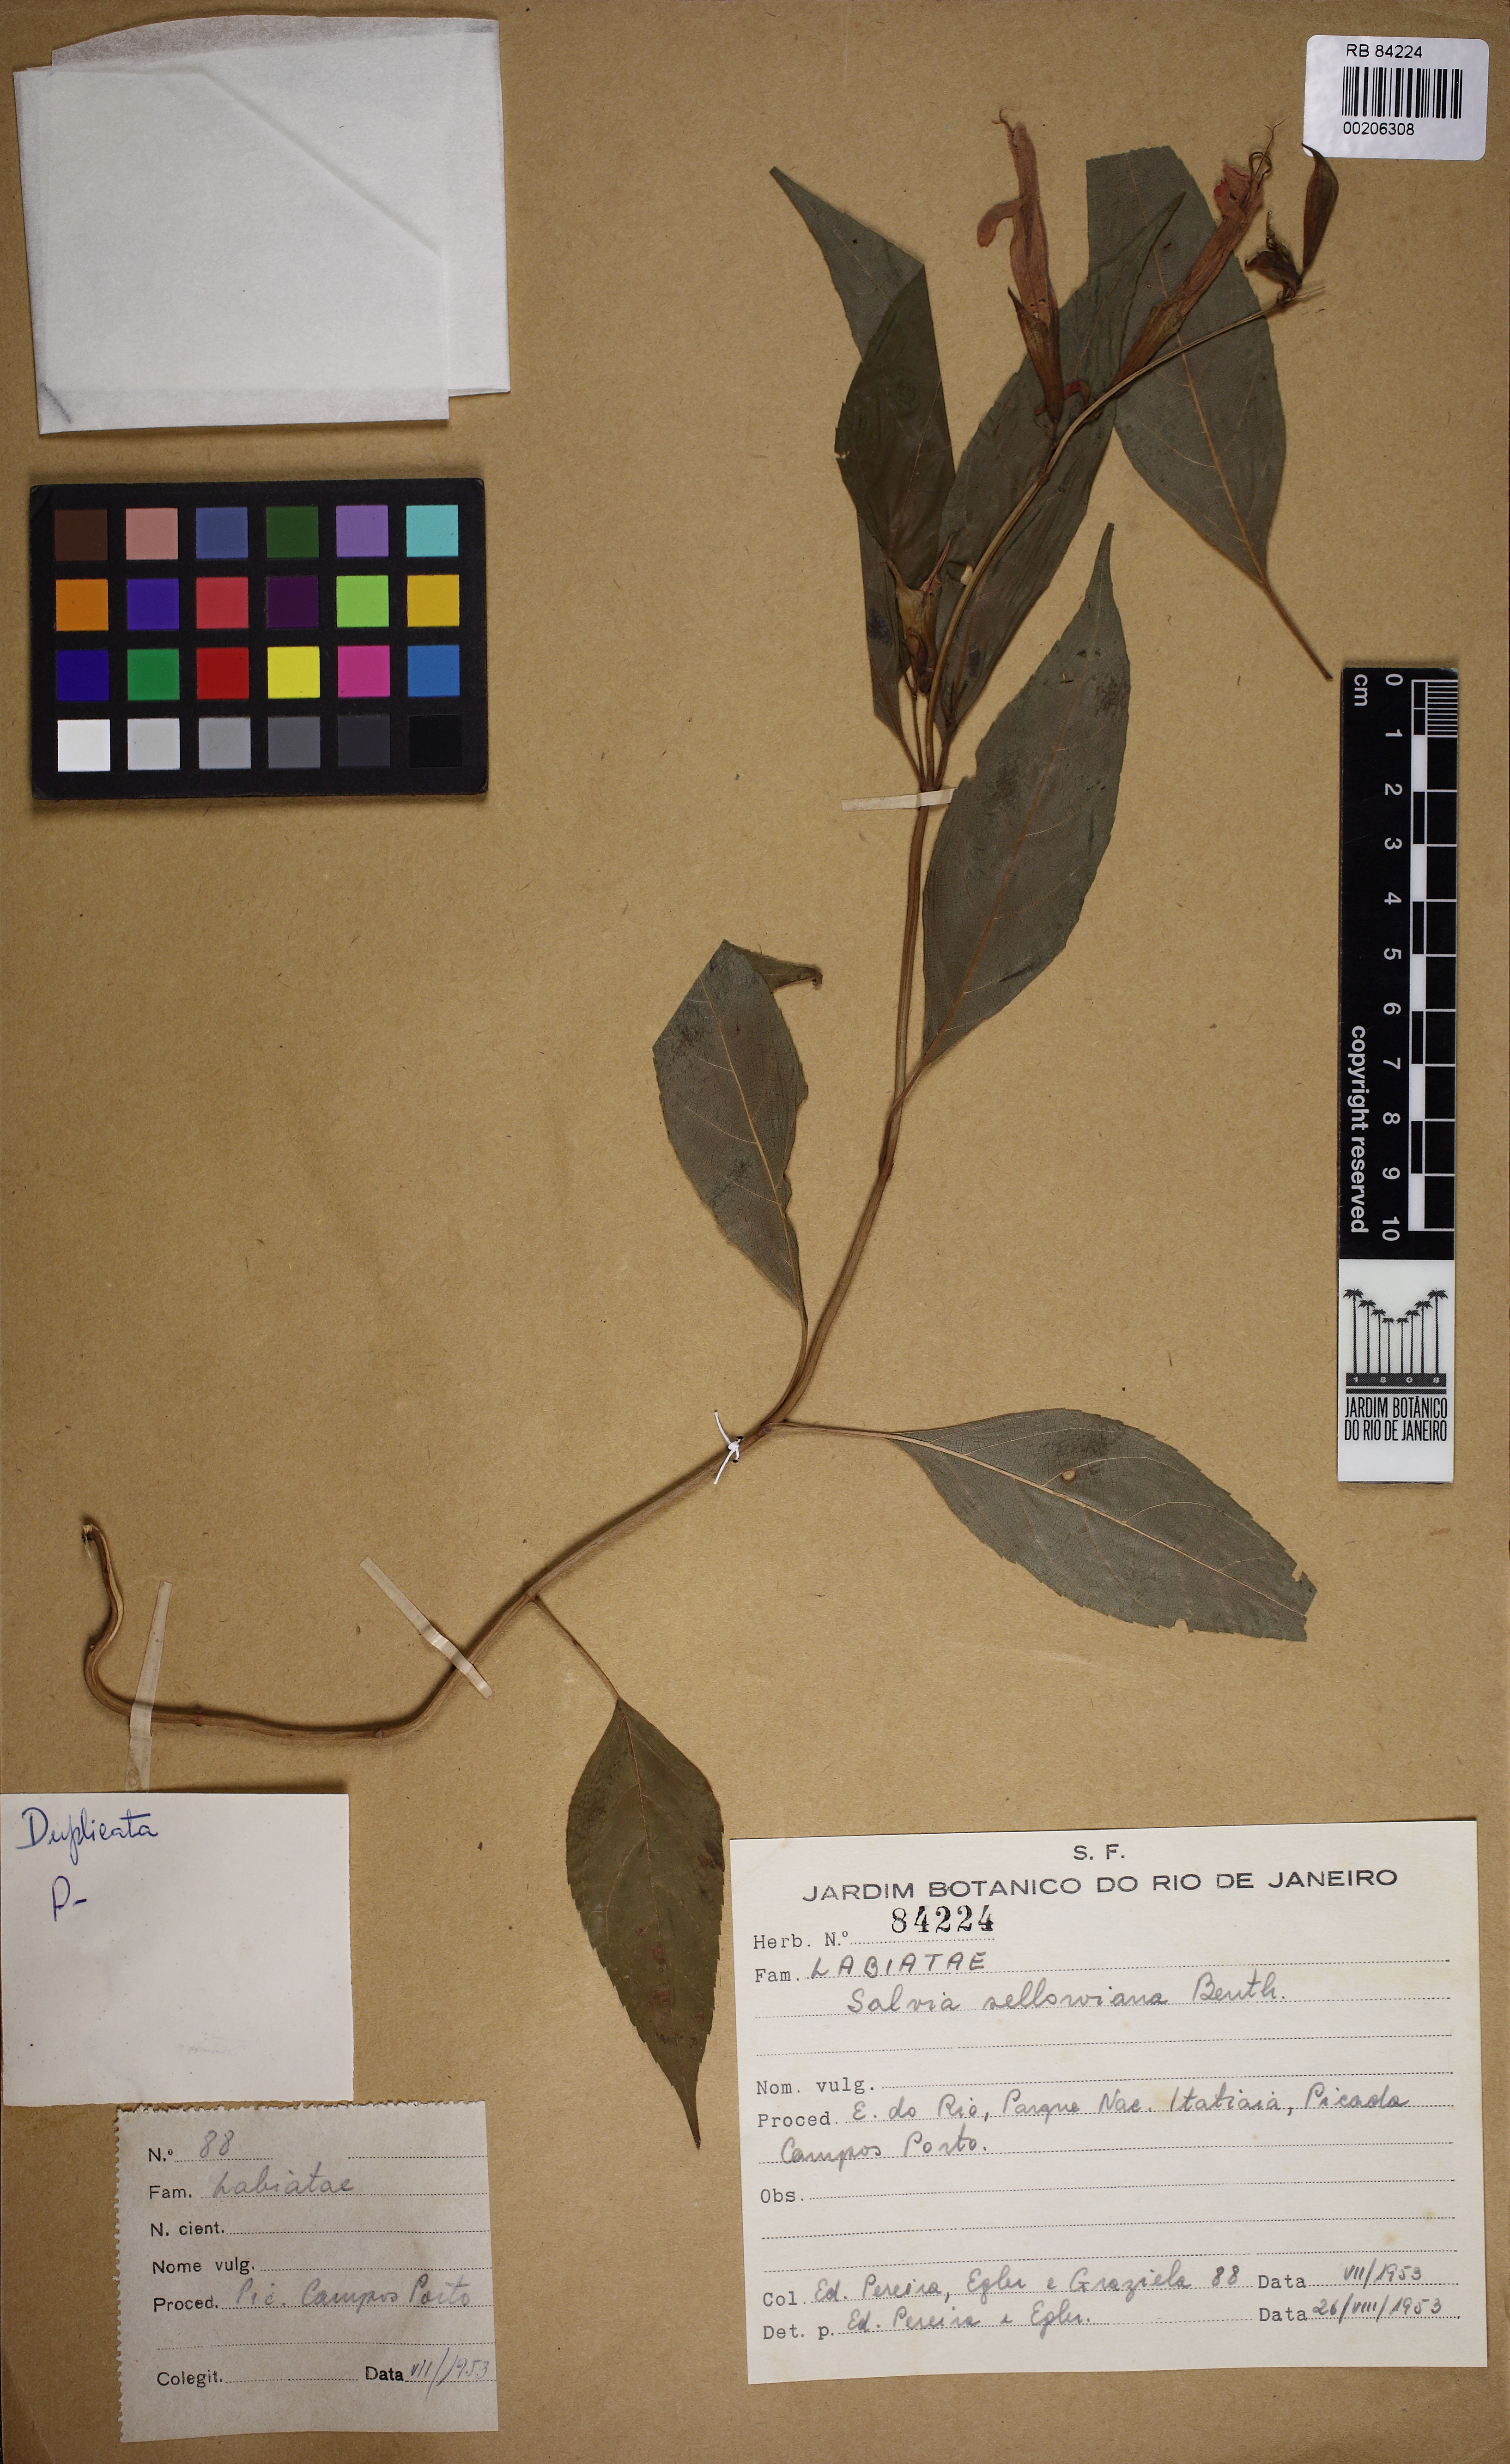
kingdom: Plantae
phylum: Tracheophyta
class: Magnoliopsida
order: Lamiales
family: Lamiaceae
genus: Salvia
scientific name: Salvia sellowiana
